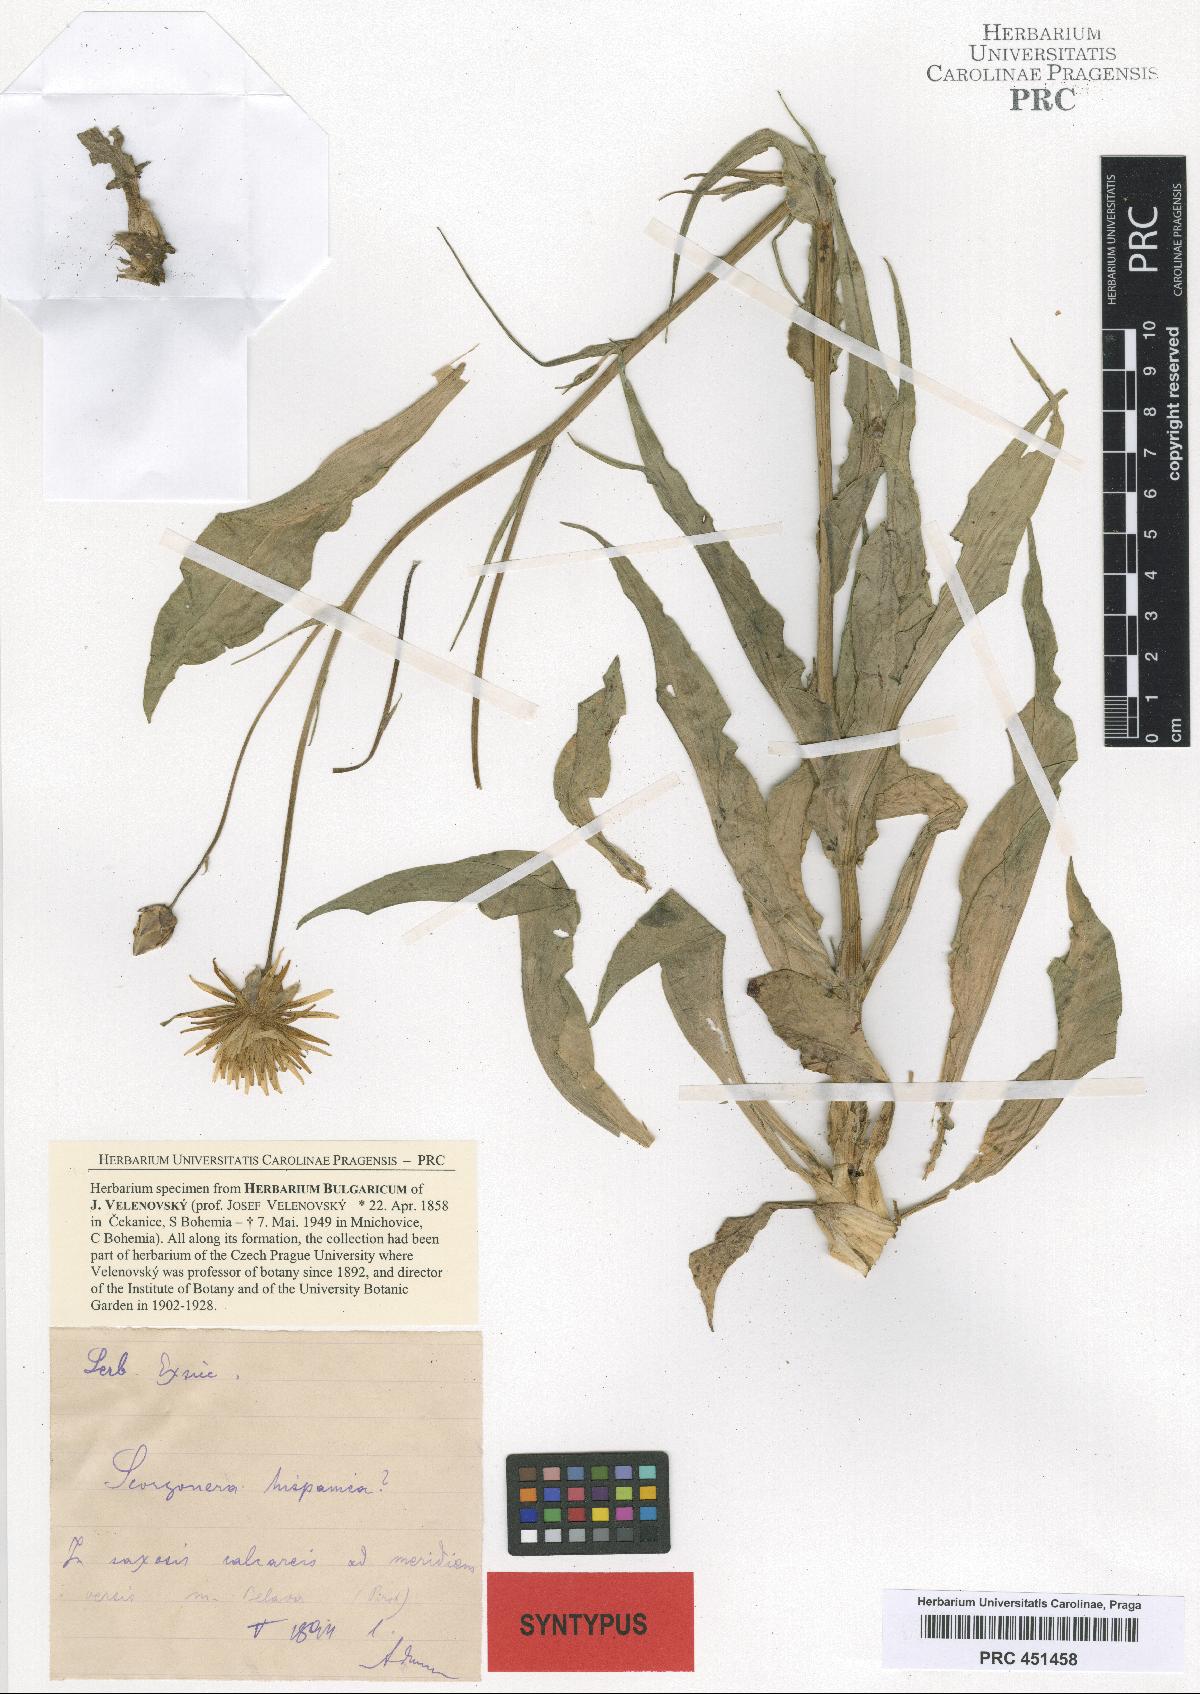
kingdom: Plantae
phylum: Tracheophyta
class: Magnoliopsida
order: Asterales
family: Asteraceae
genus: Pseudopodospermum
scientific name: Pseudopodospermum hispanicum
